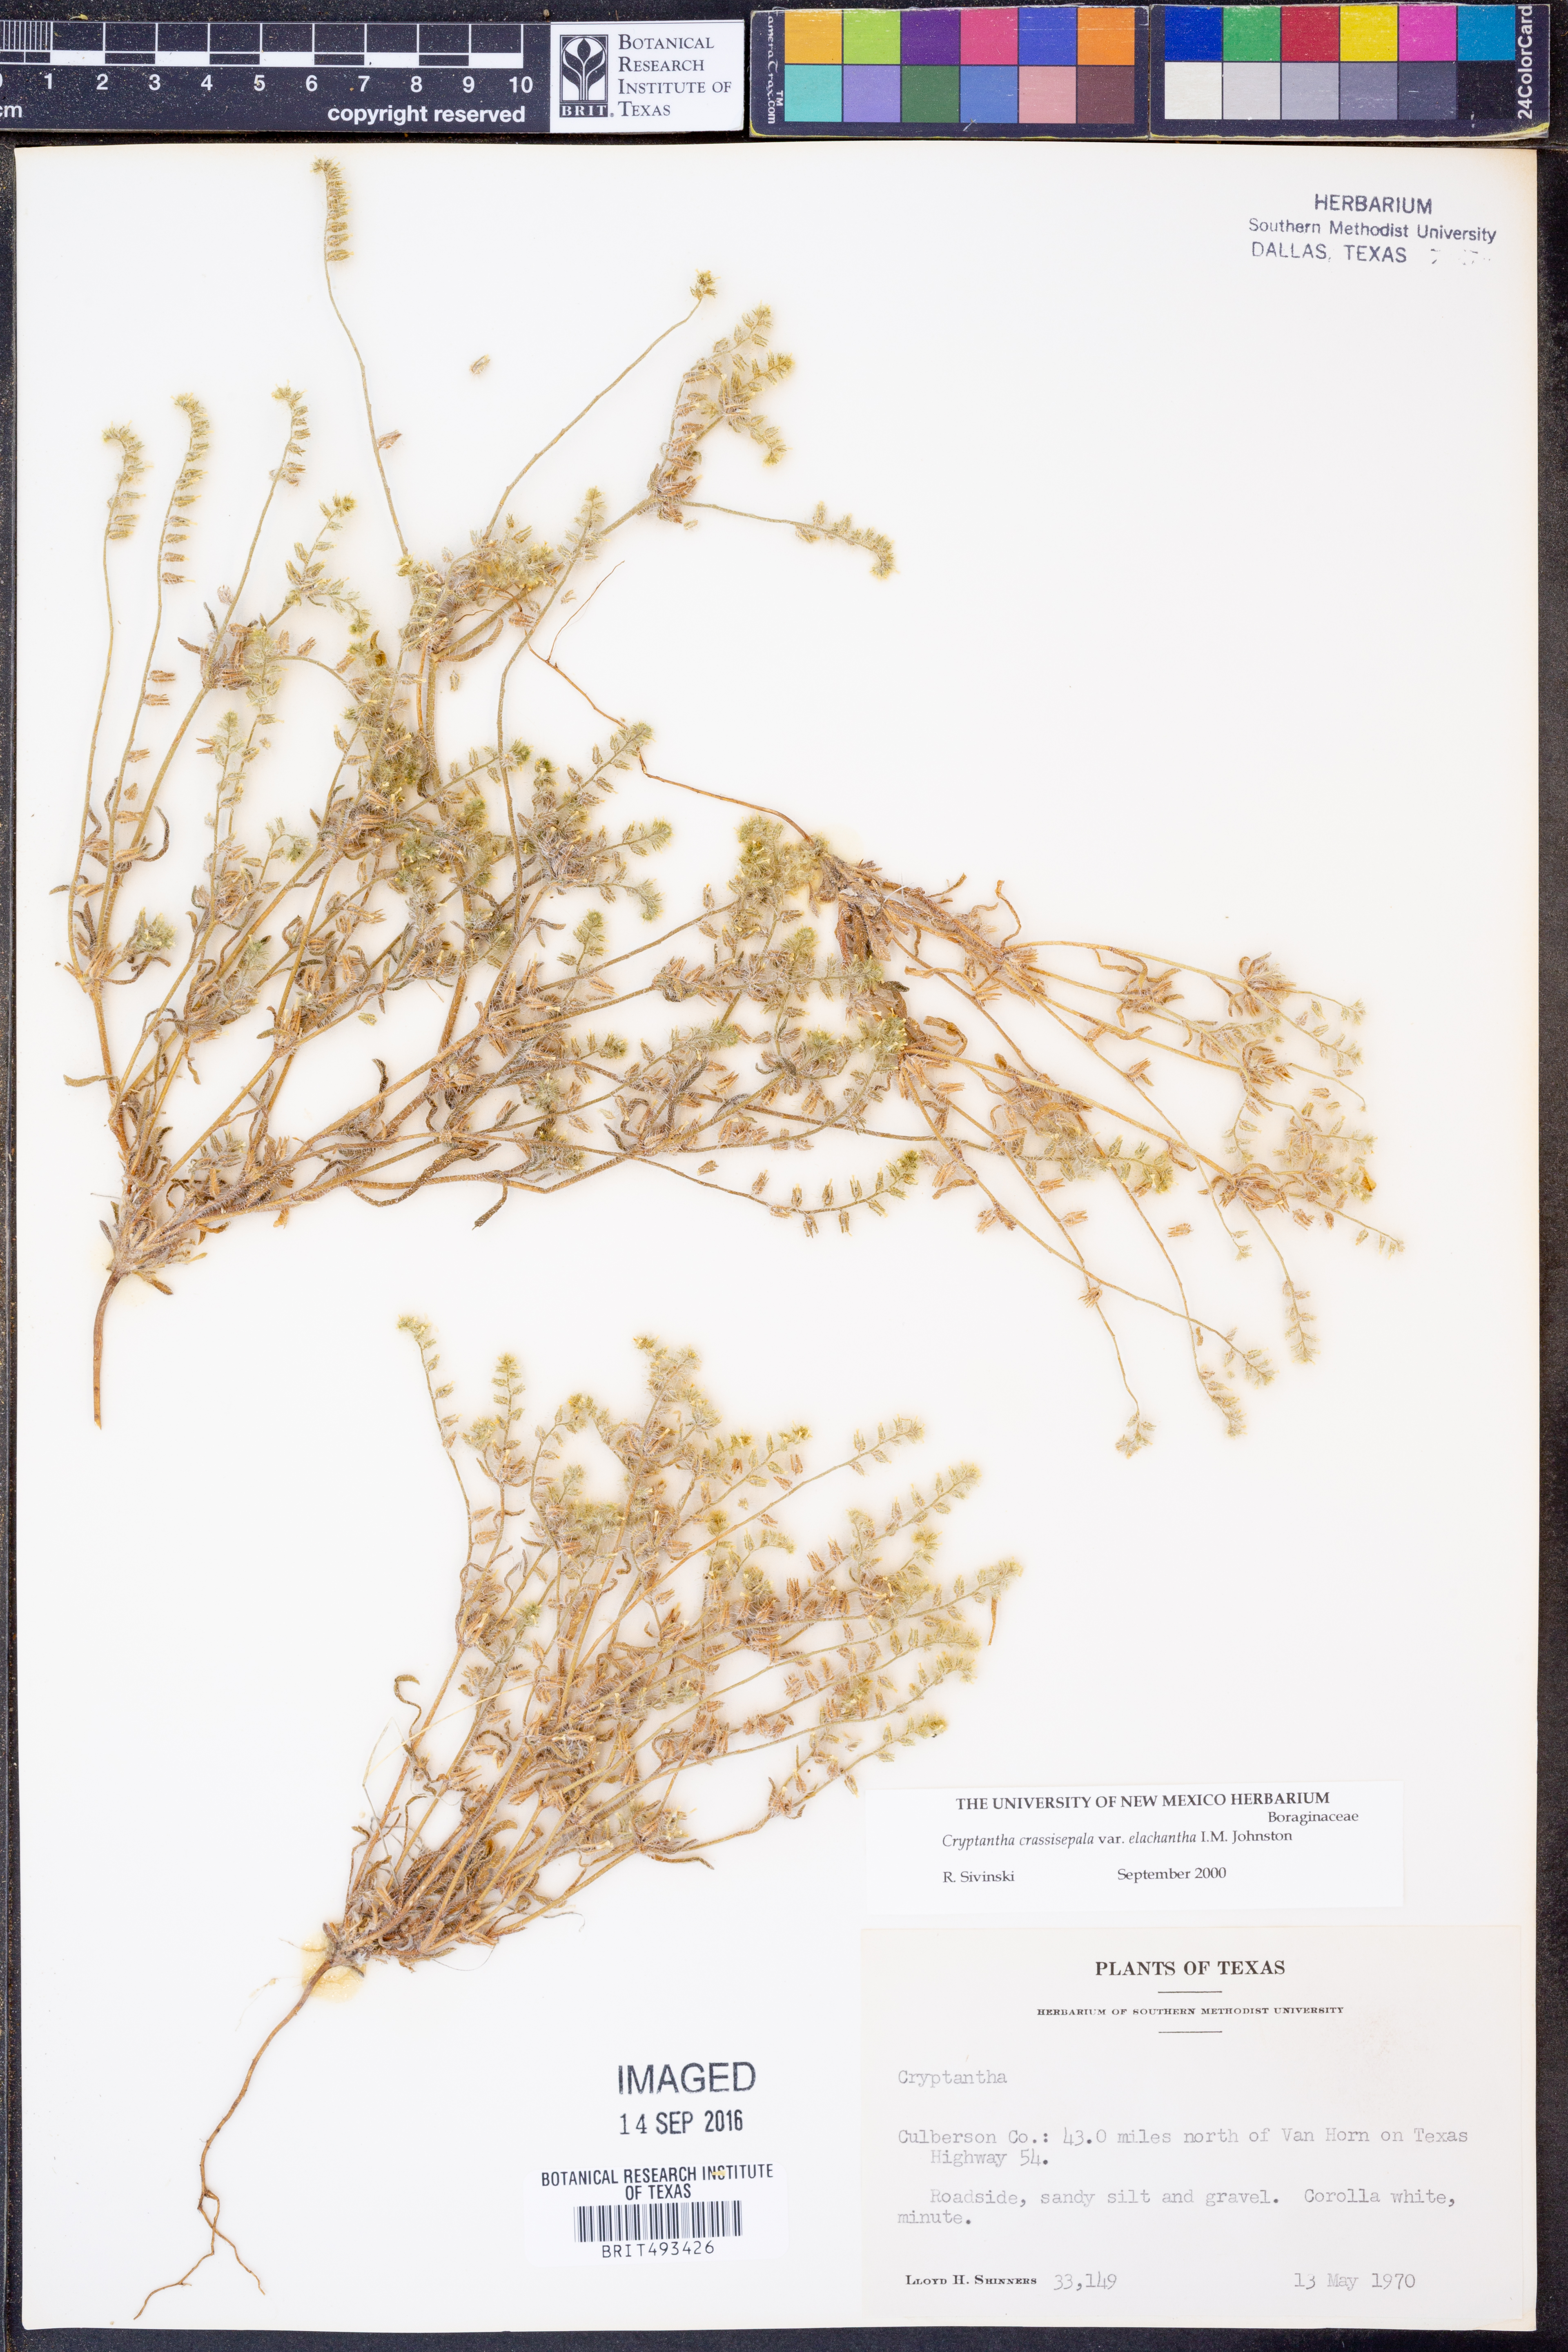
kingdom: Plantae
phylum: Tracheophyta
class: Magnoliopsida
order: Boraginales
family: Boraginaceae
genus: Cryptantha
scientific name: Cryptantha crassisepala
